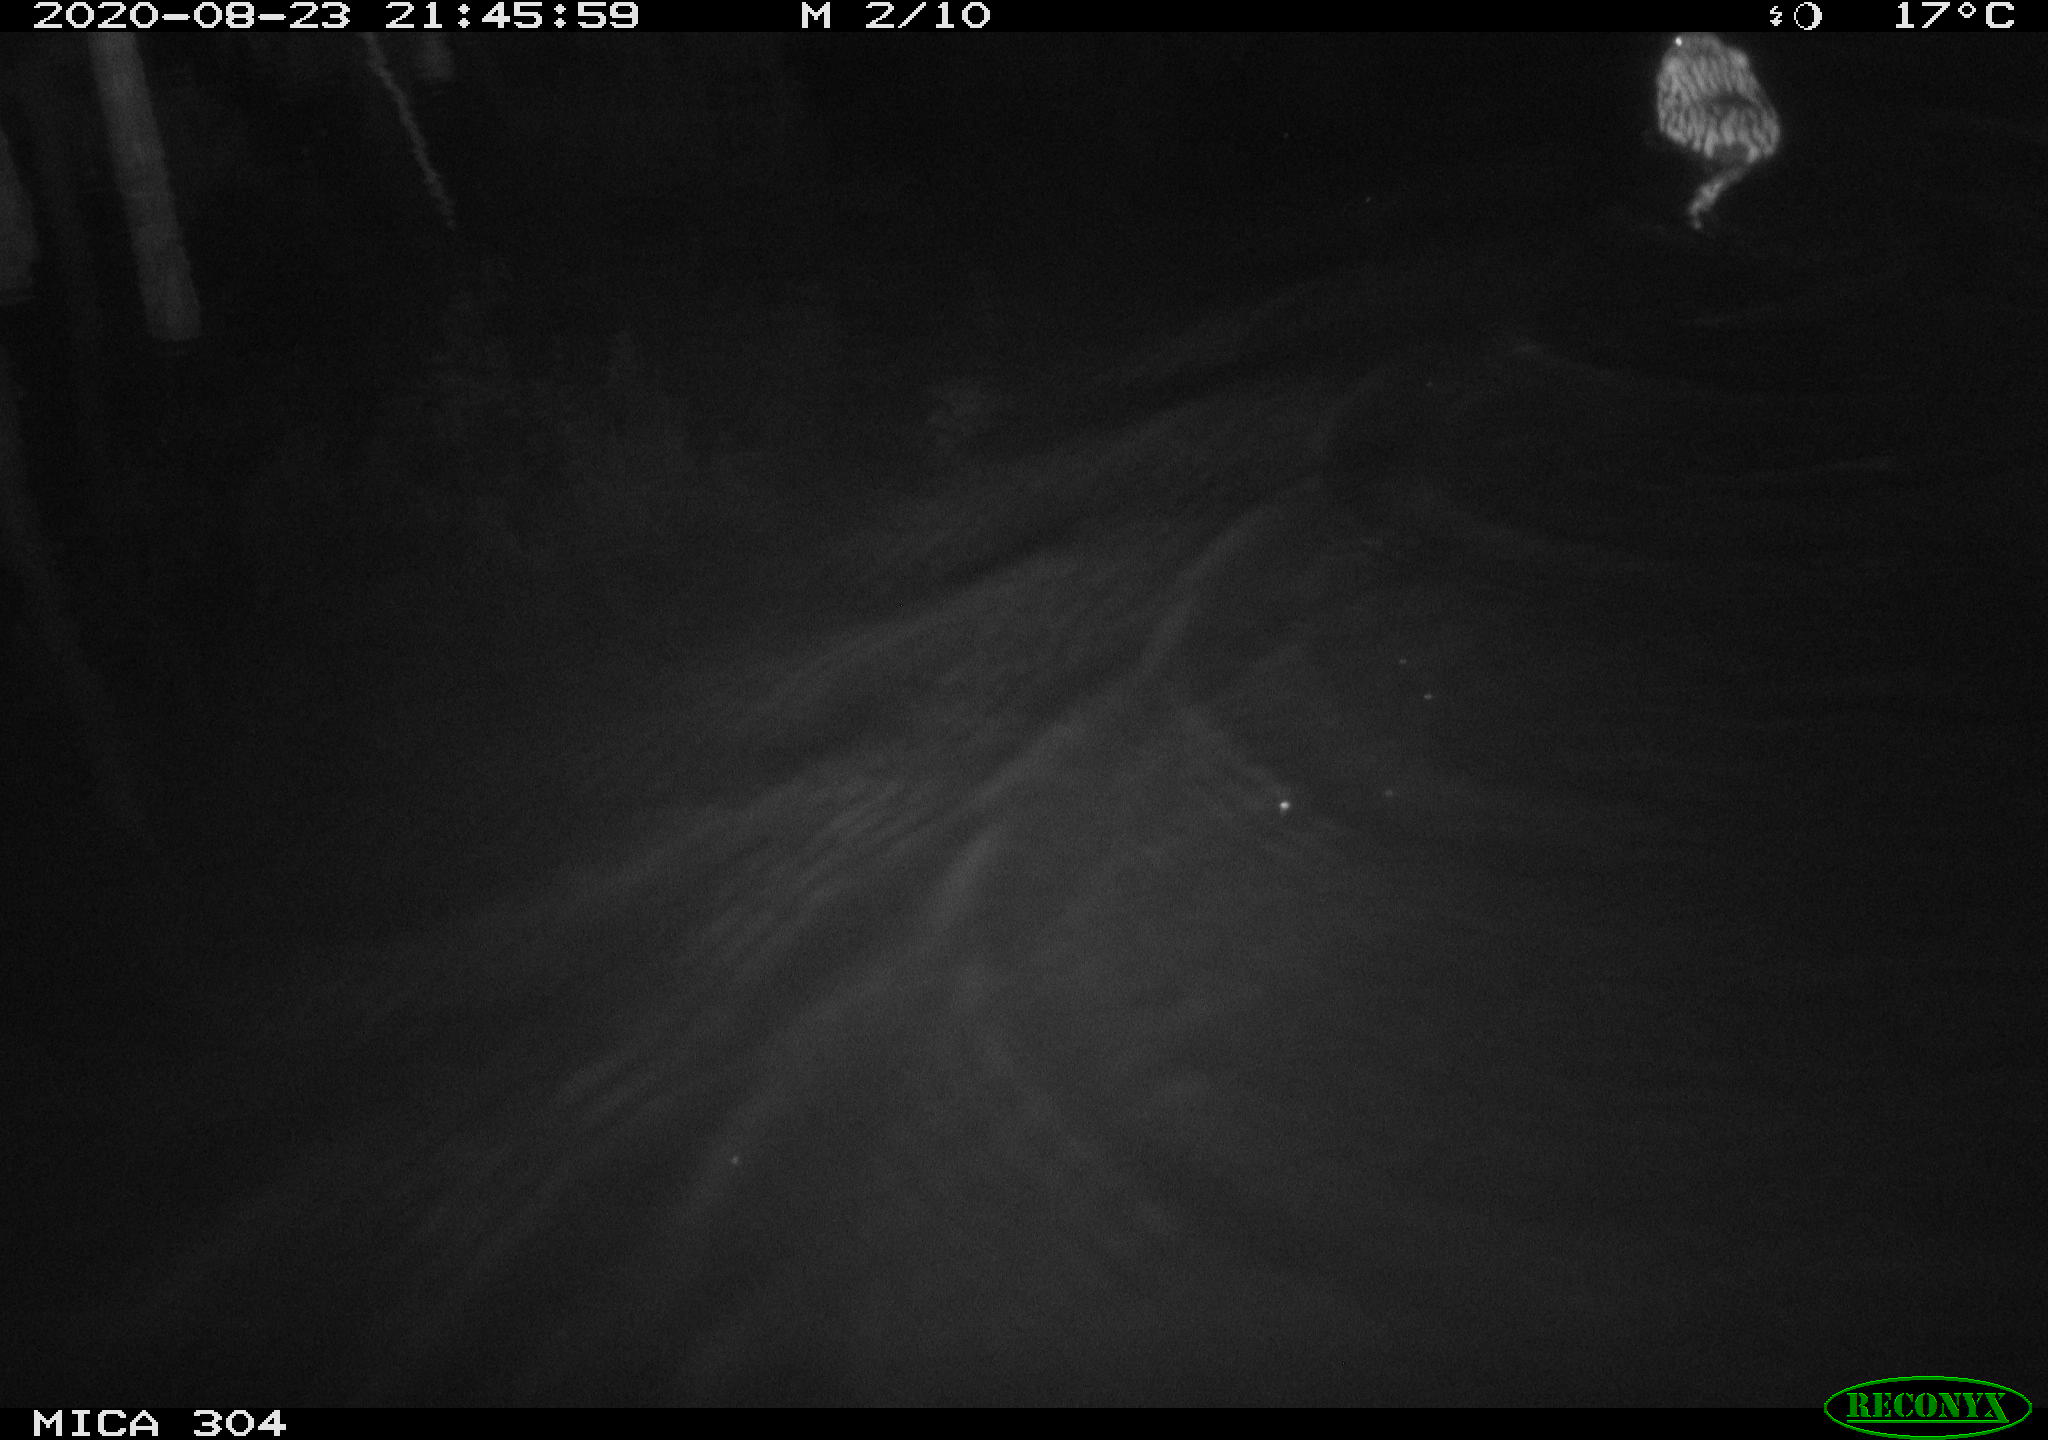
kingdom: Animalia
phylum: Chordata
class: Mammalia
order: Rodentia
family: Cricetidae
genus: Ondatra
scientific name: Ondatra zibethicus
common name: Muskrat
